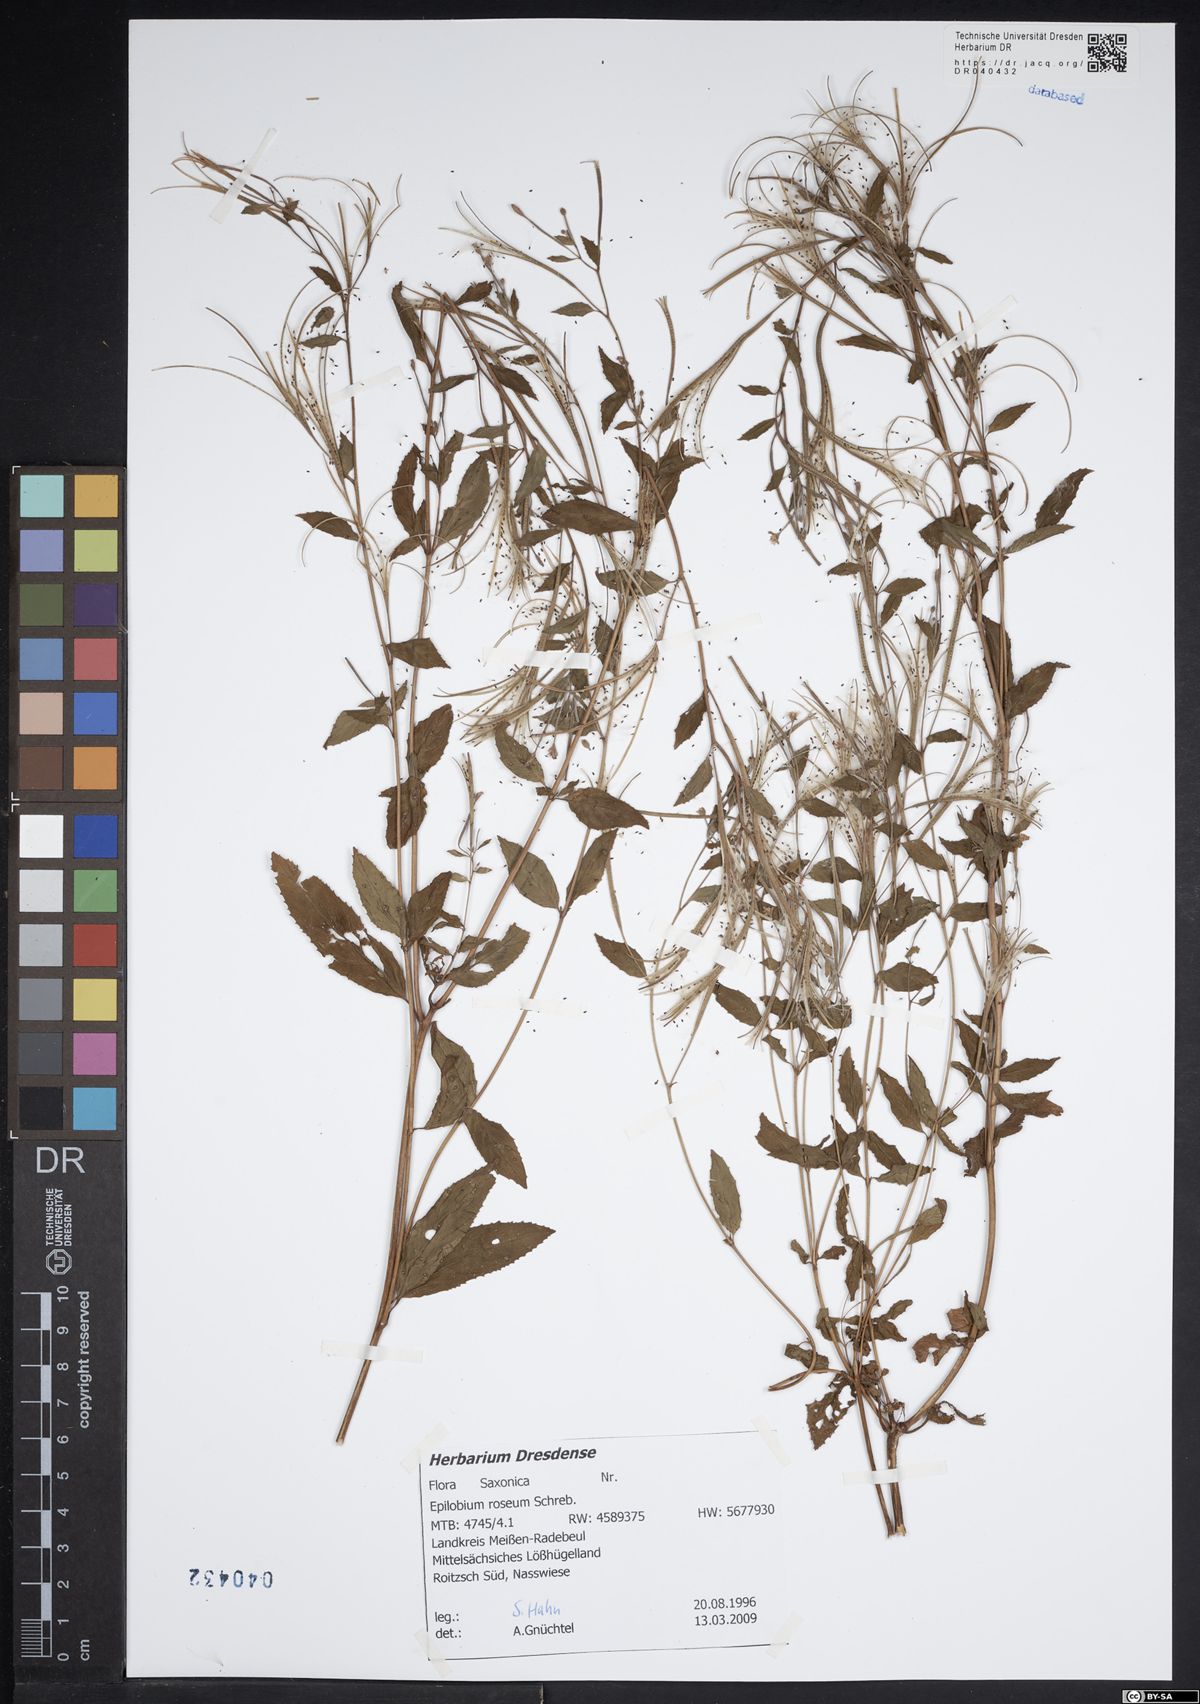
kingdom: Plantae
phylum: Tracheophyta
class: Magnoliopsida
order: Myrtales
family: Onagraceae
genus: Epilobium
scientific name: Epilobium roseum
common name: Pale willowherb
